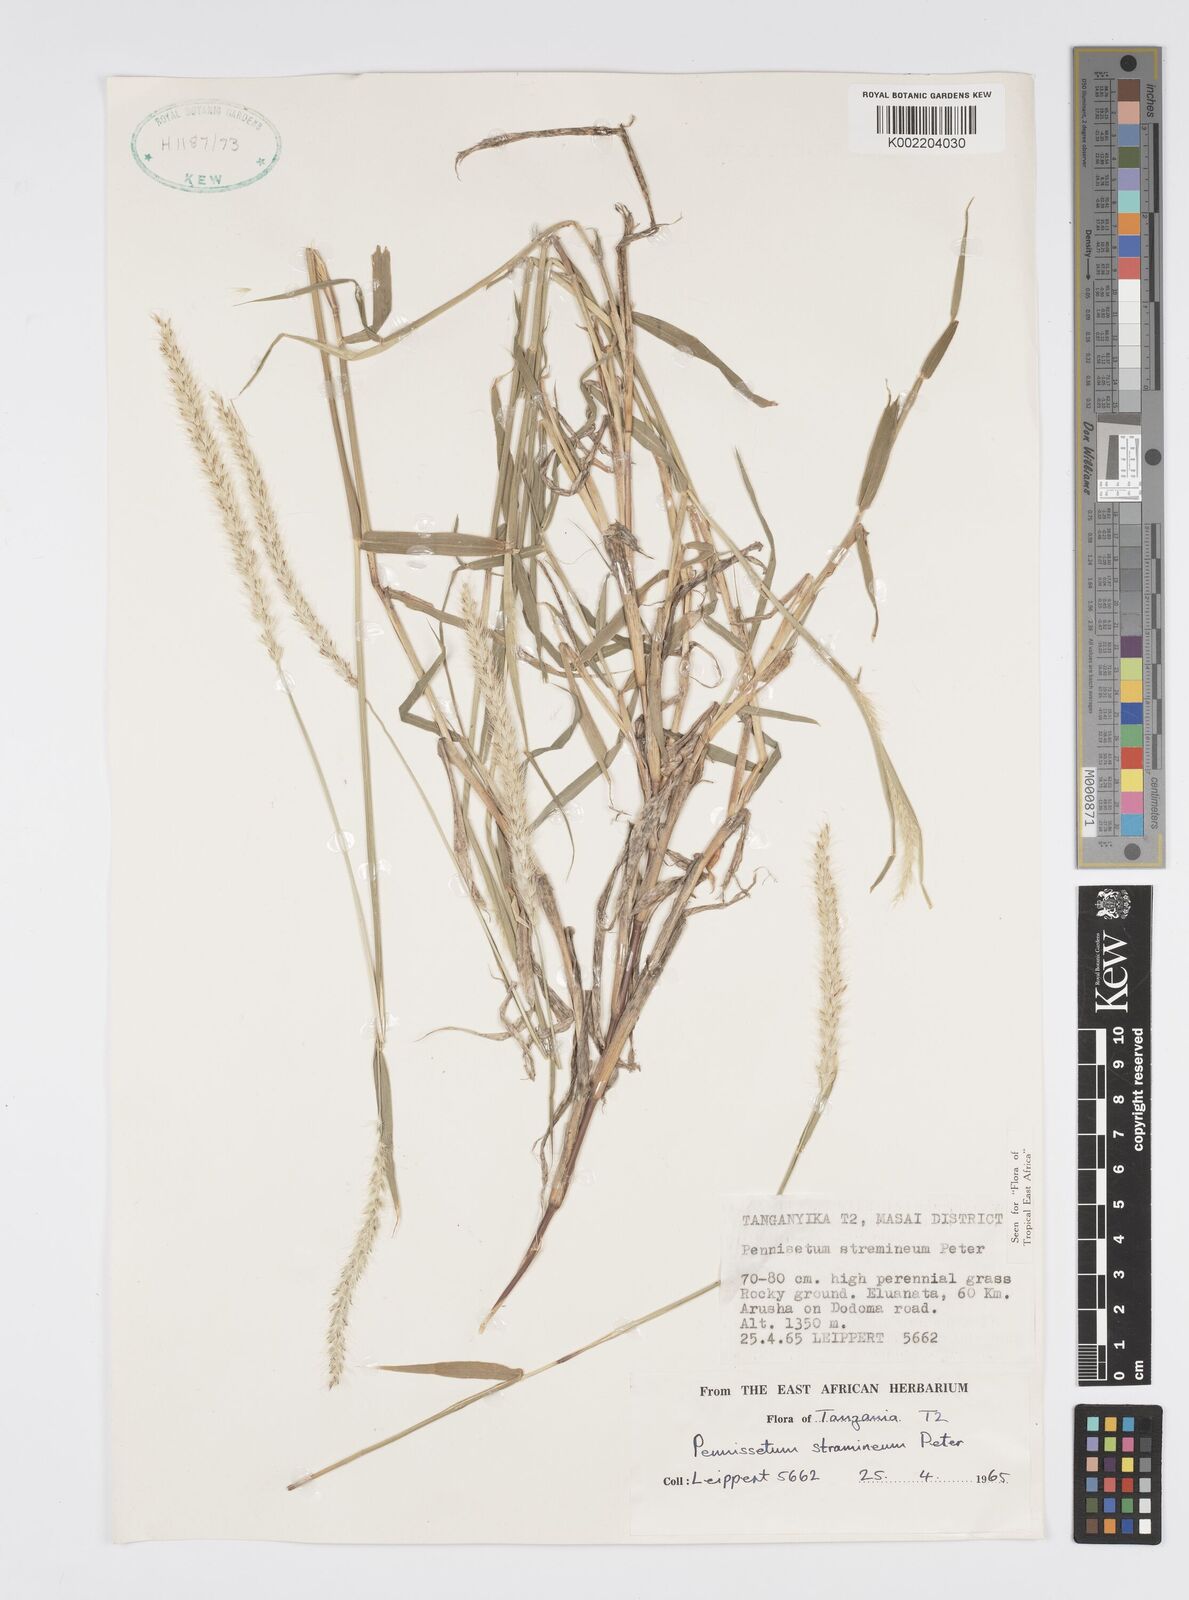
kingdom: Plantae
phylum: Tracheophyta
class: Liliopsida
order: Poales
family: Poaceae
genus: Cenchrus
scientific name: Cenchrus stramineus
